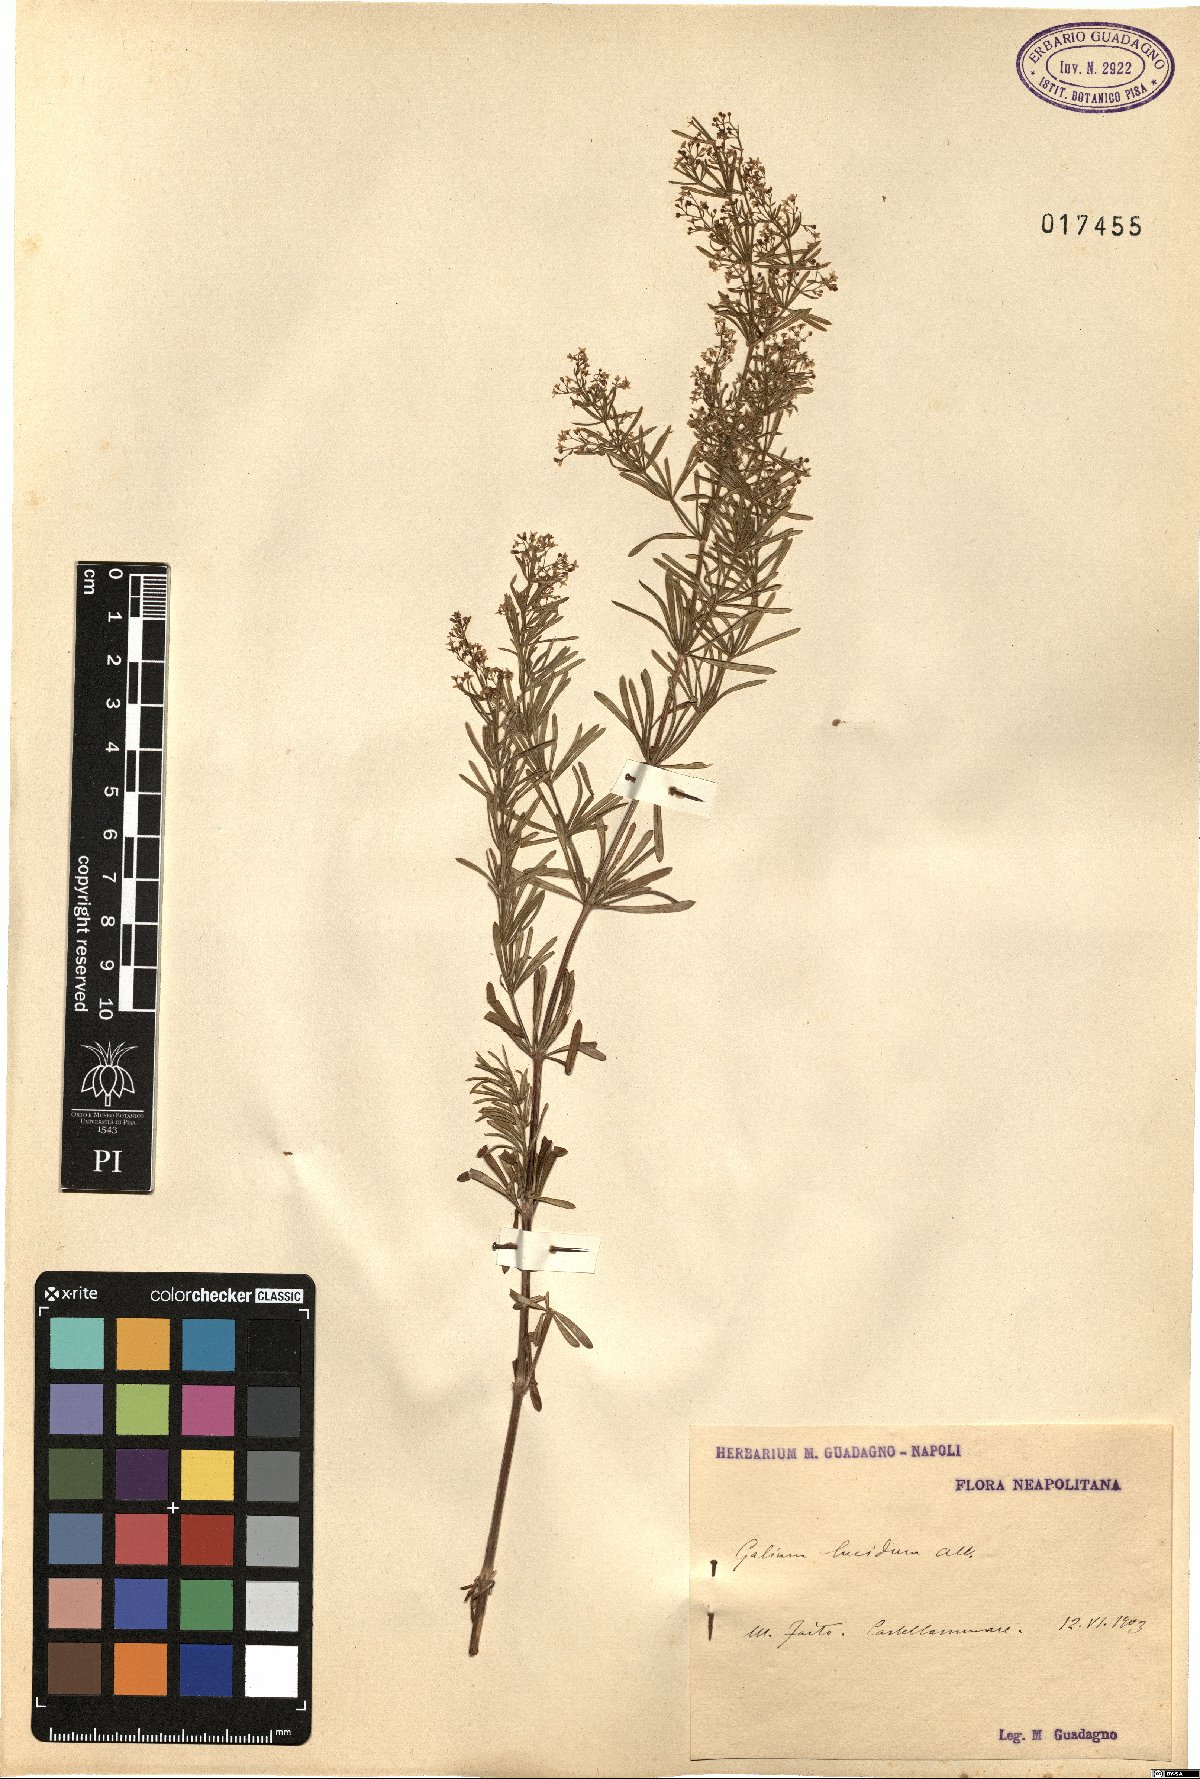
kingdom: Plantae
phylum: Tracheophyta
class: Magnoliopsida
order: Gentianales
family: Rubiaceae
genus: Galium
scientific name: Galium lucidum
